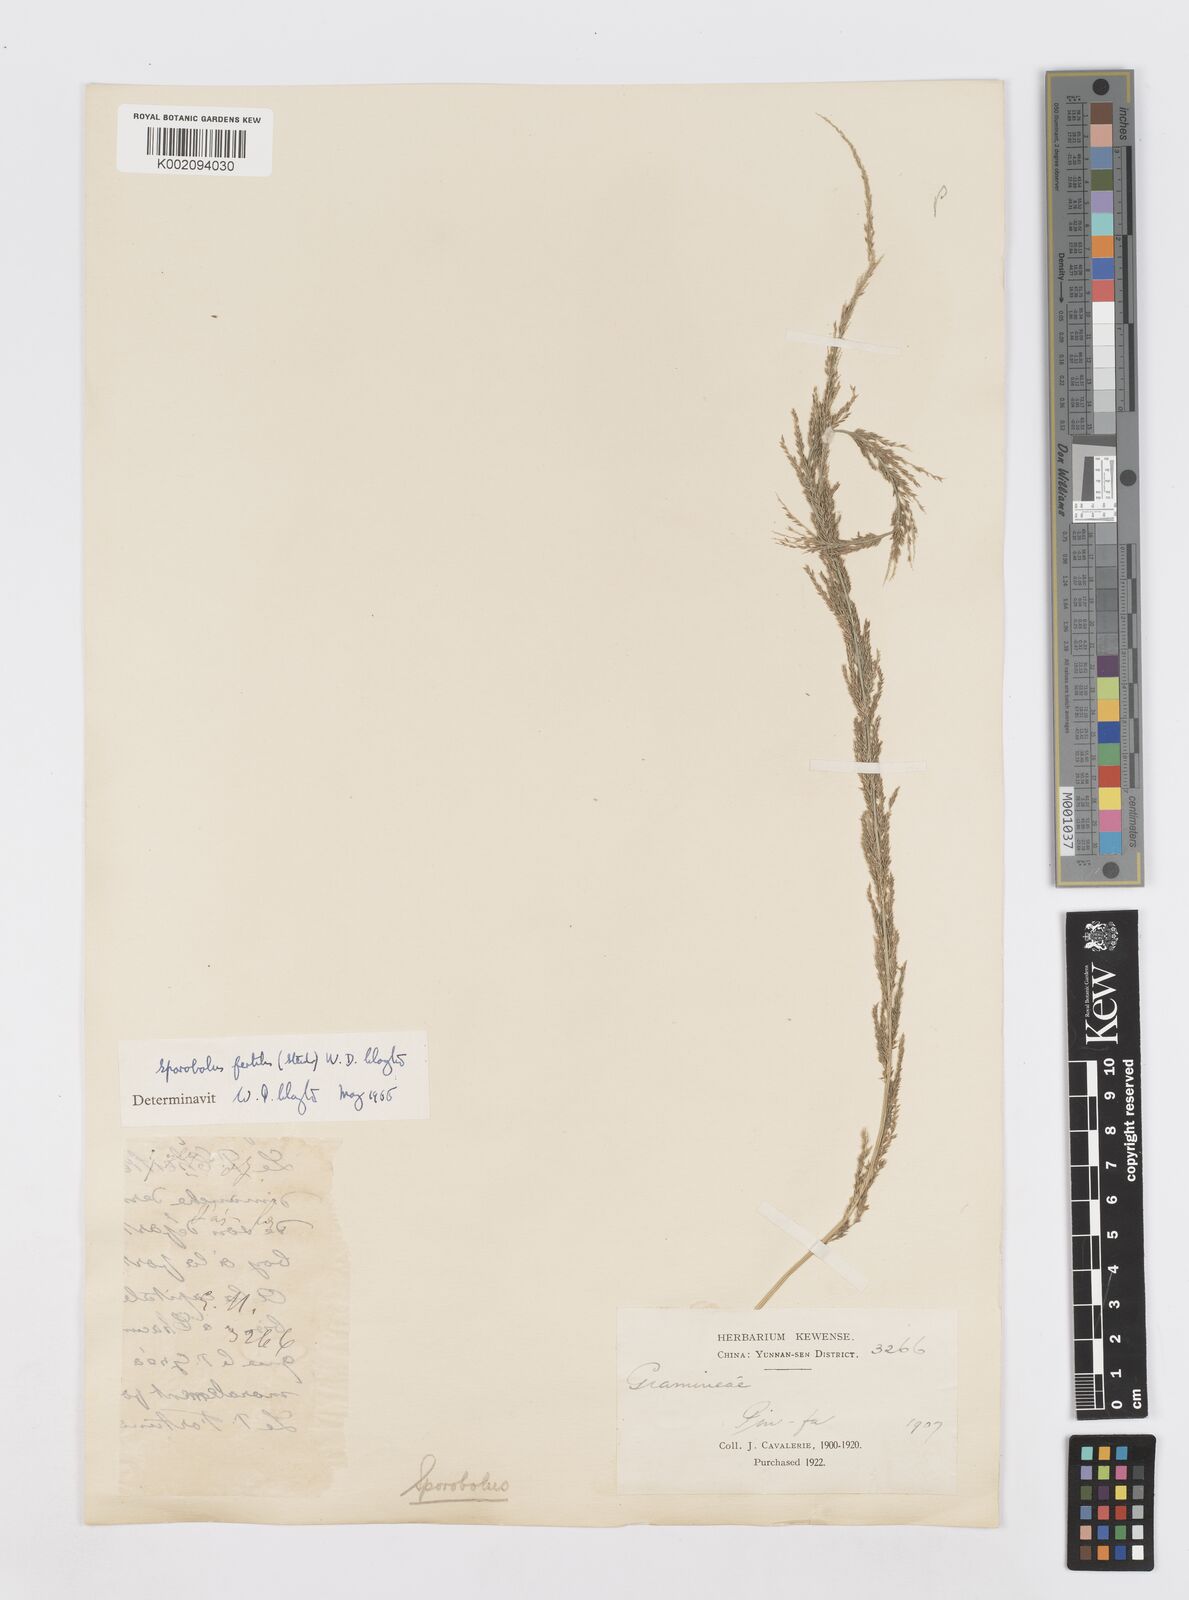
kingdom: Plantae
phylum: Tracheophyta
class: Liliopsida
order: Poales
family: Poaceae
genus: Sporobolus
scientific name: Sporobolus fertilis
